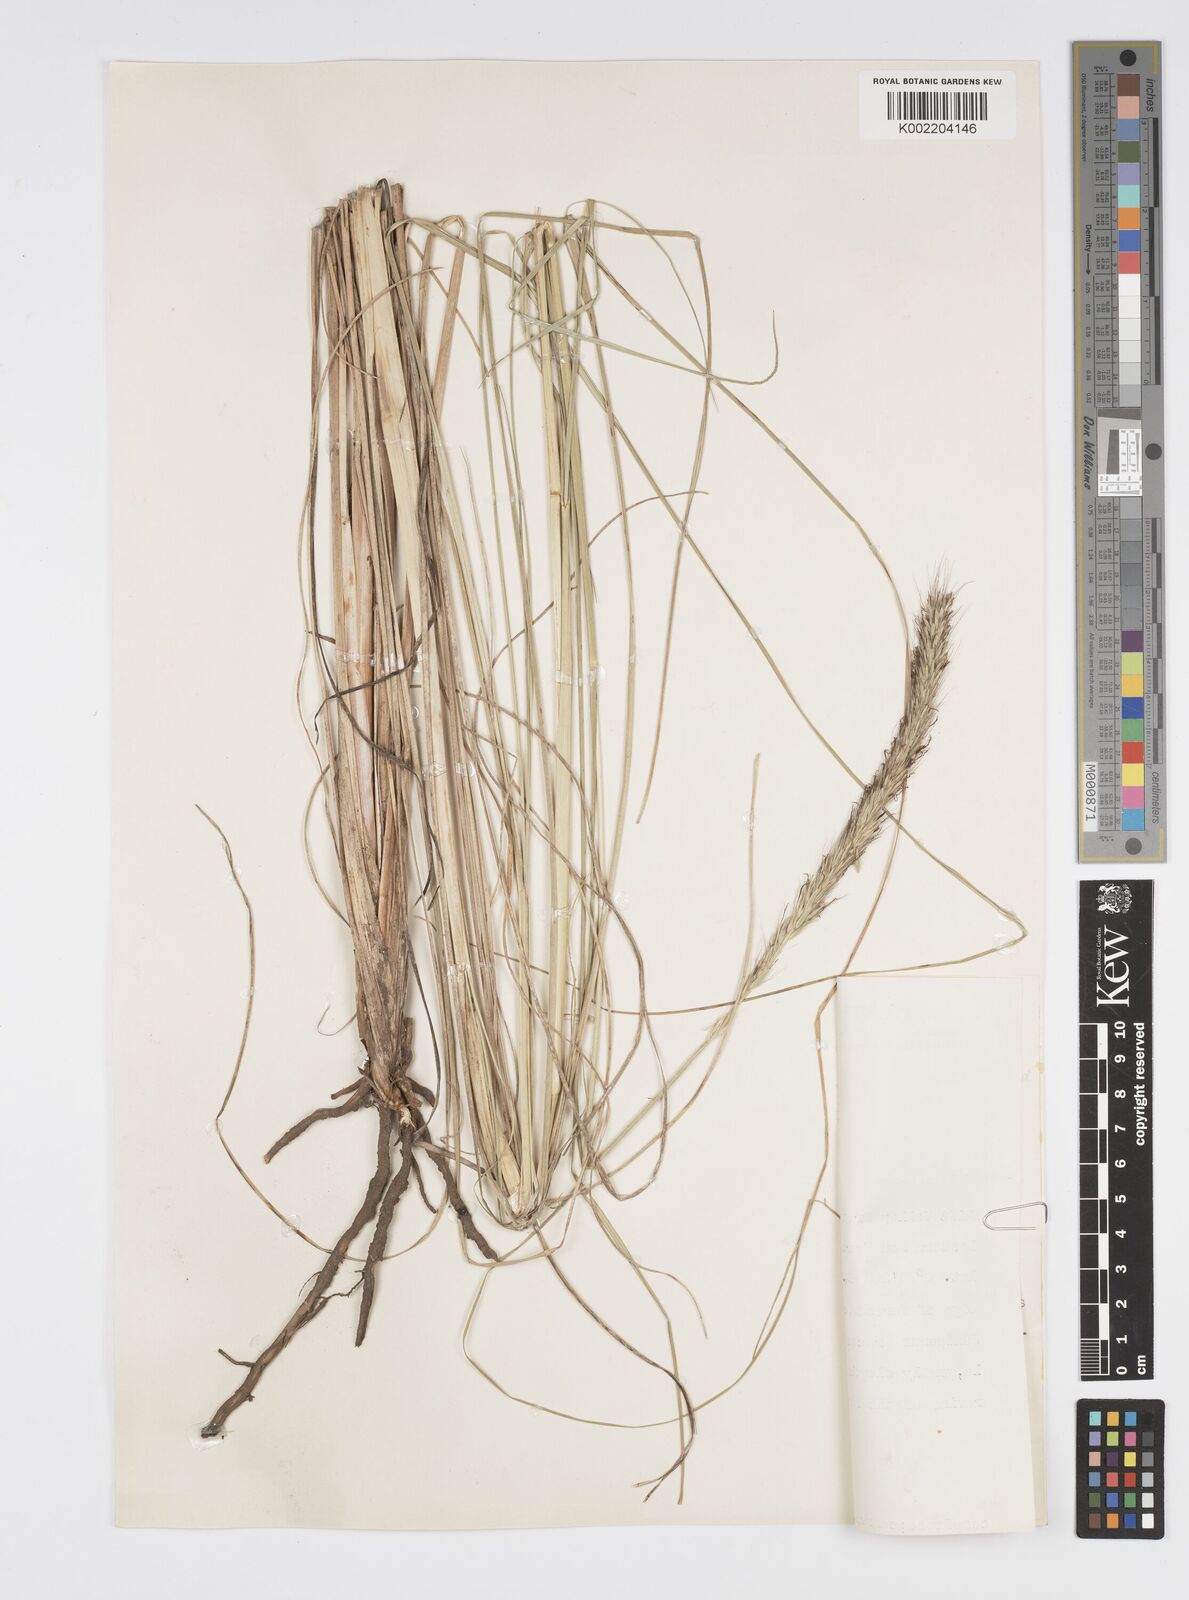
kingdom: Plantae
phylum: Tracheophyta
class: Liliopsida
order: Poales
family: Poaceae
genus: Cenchrus
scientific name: Cenchrus Pennisetum spec
